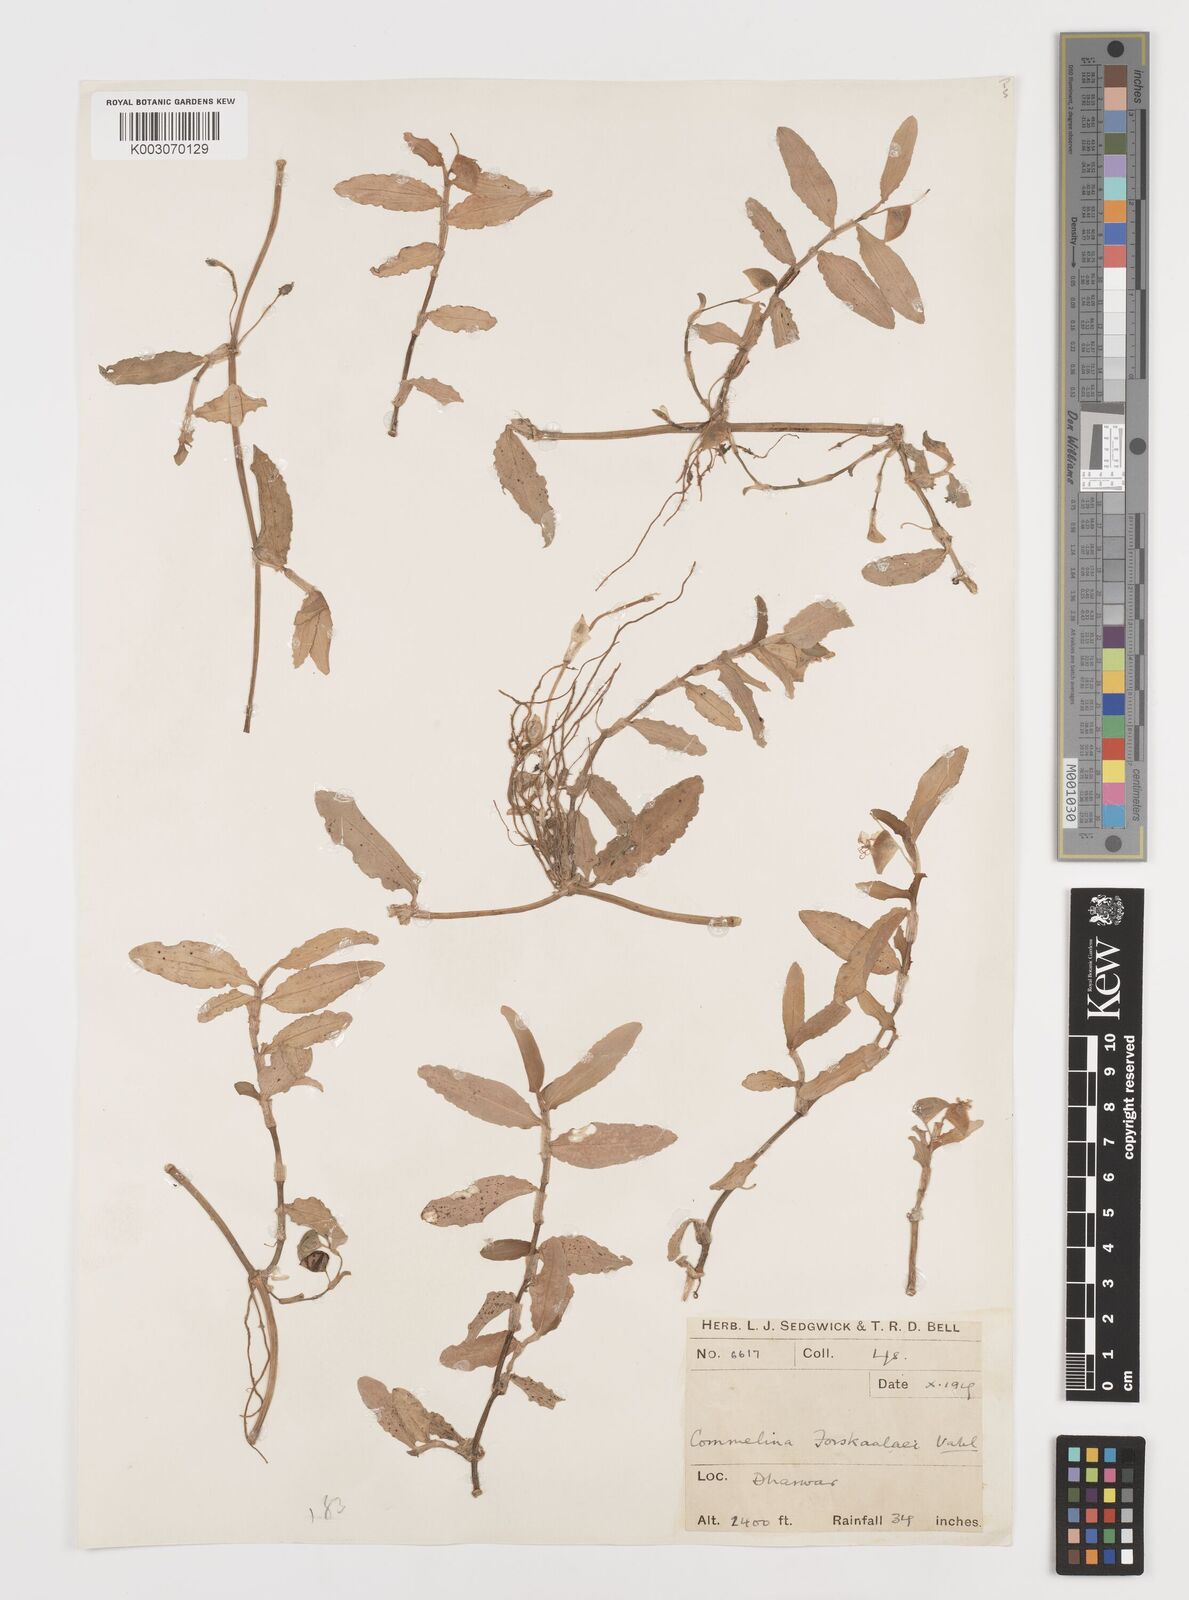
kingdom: Plantae
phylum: Tracheophyta
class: Liliopsida
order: Commelinales
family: Commelinaceae
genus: Commelina
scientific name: Commelina forskaolii
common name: Rat's ear
